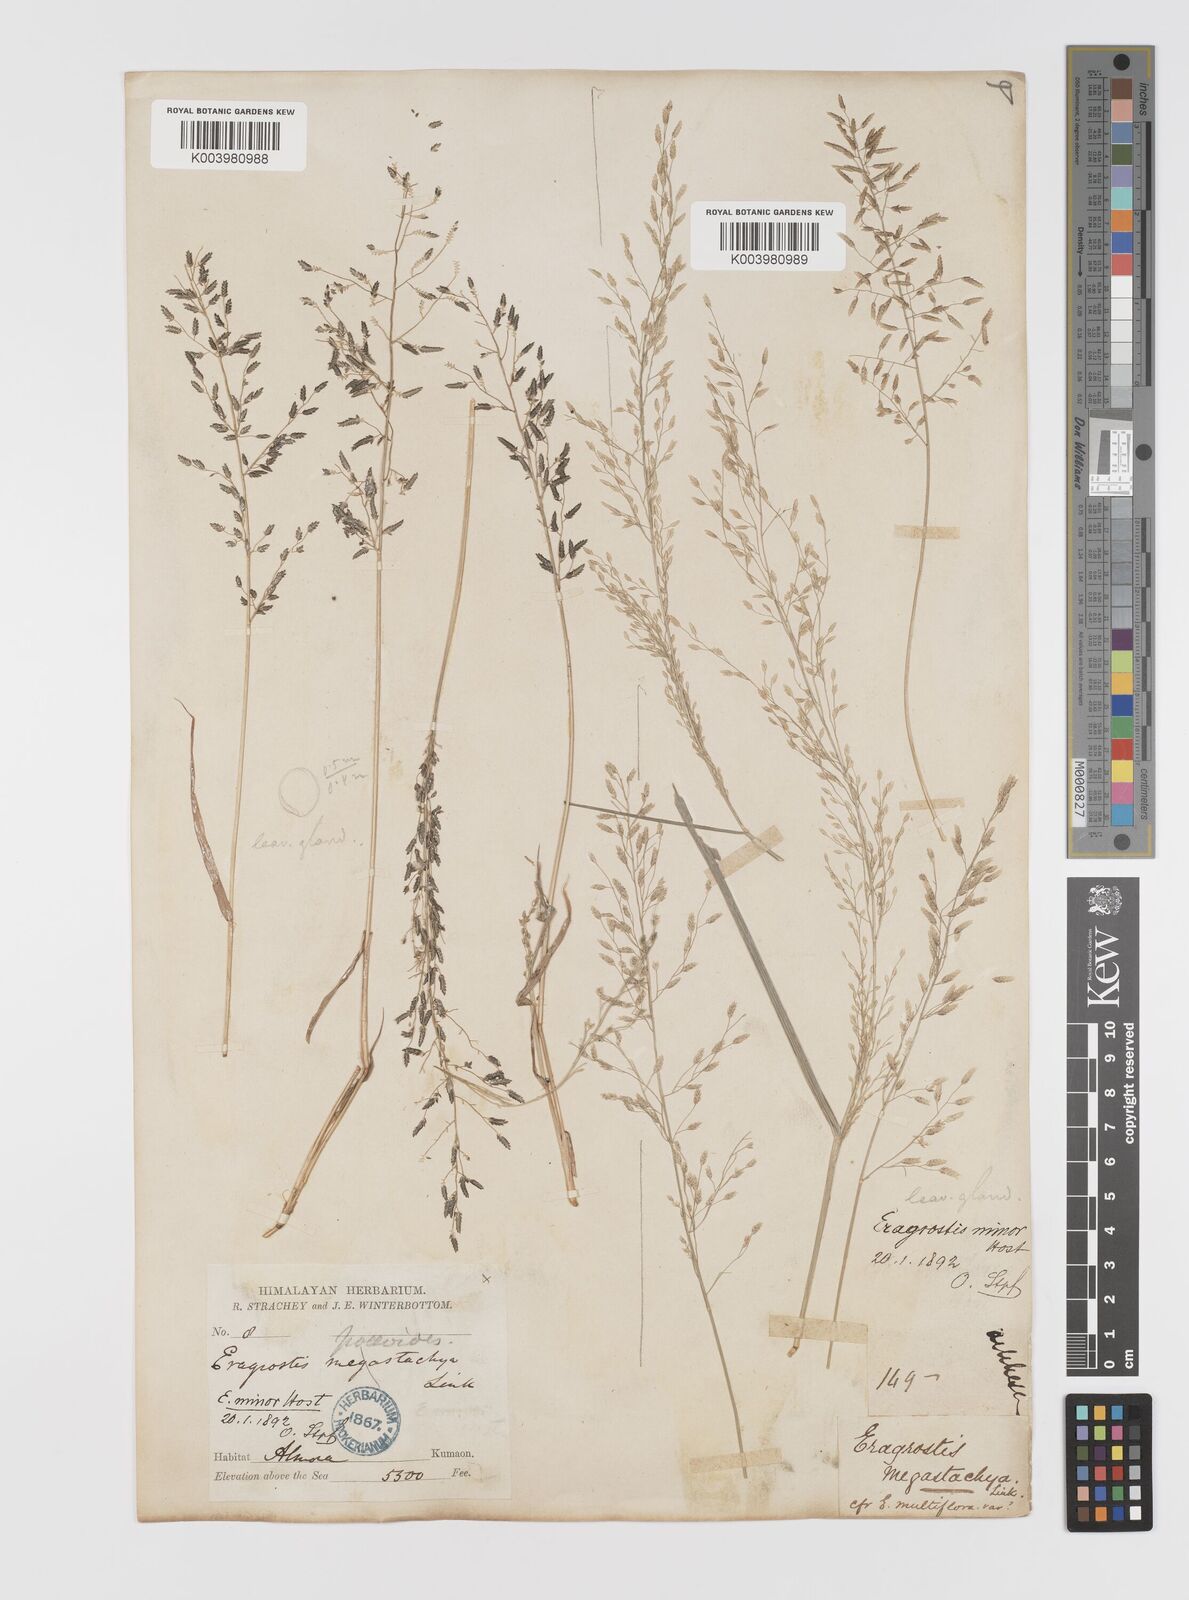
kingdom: Plantae
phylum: Tracheophyta
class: Liliopsida
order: Poales
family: Poaceae
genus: Eragrostis
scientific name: Eragrostis minor
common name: Small love-grass
